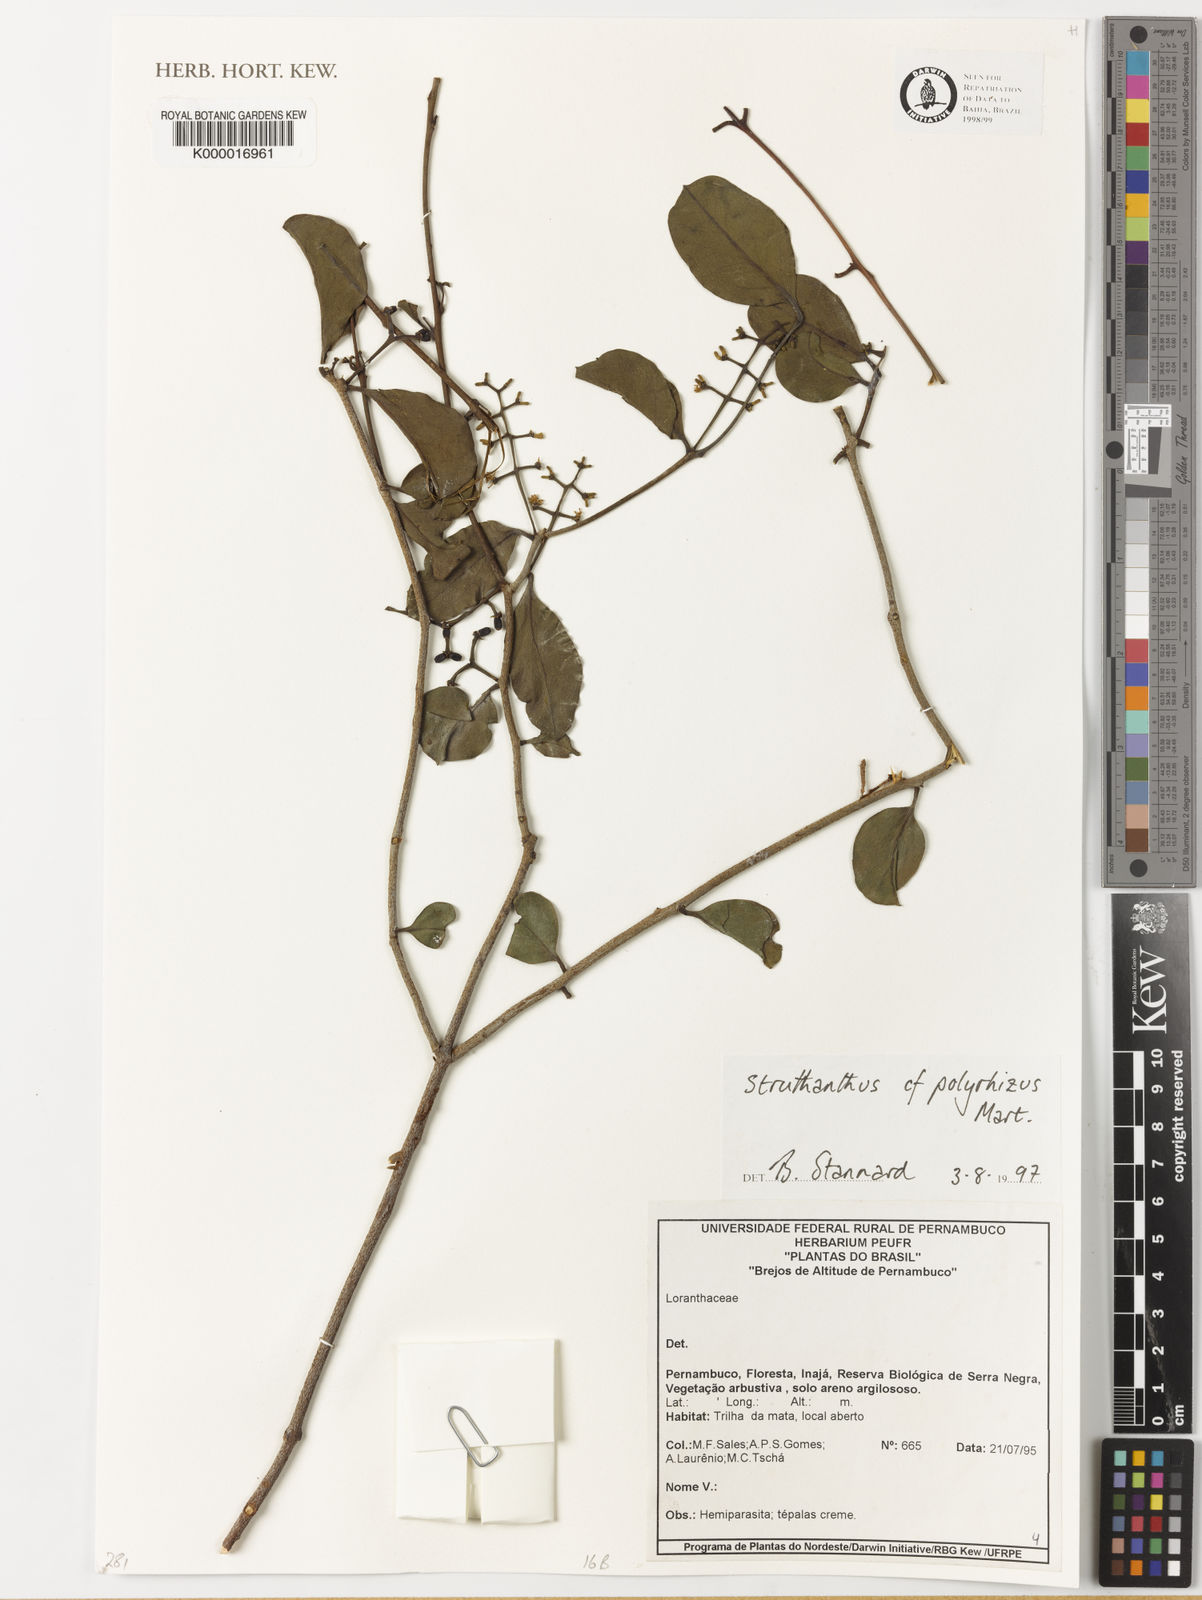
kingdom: Plantae
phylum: Tracheophyta
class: Magnoliopsida
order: Santalales
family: Loranthaceae
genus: Struthanthus
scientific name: Struthanthus retusus
